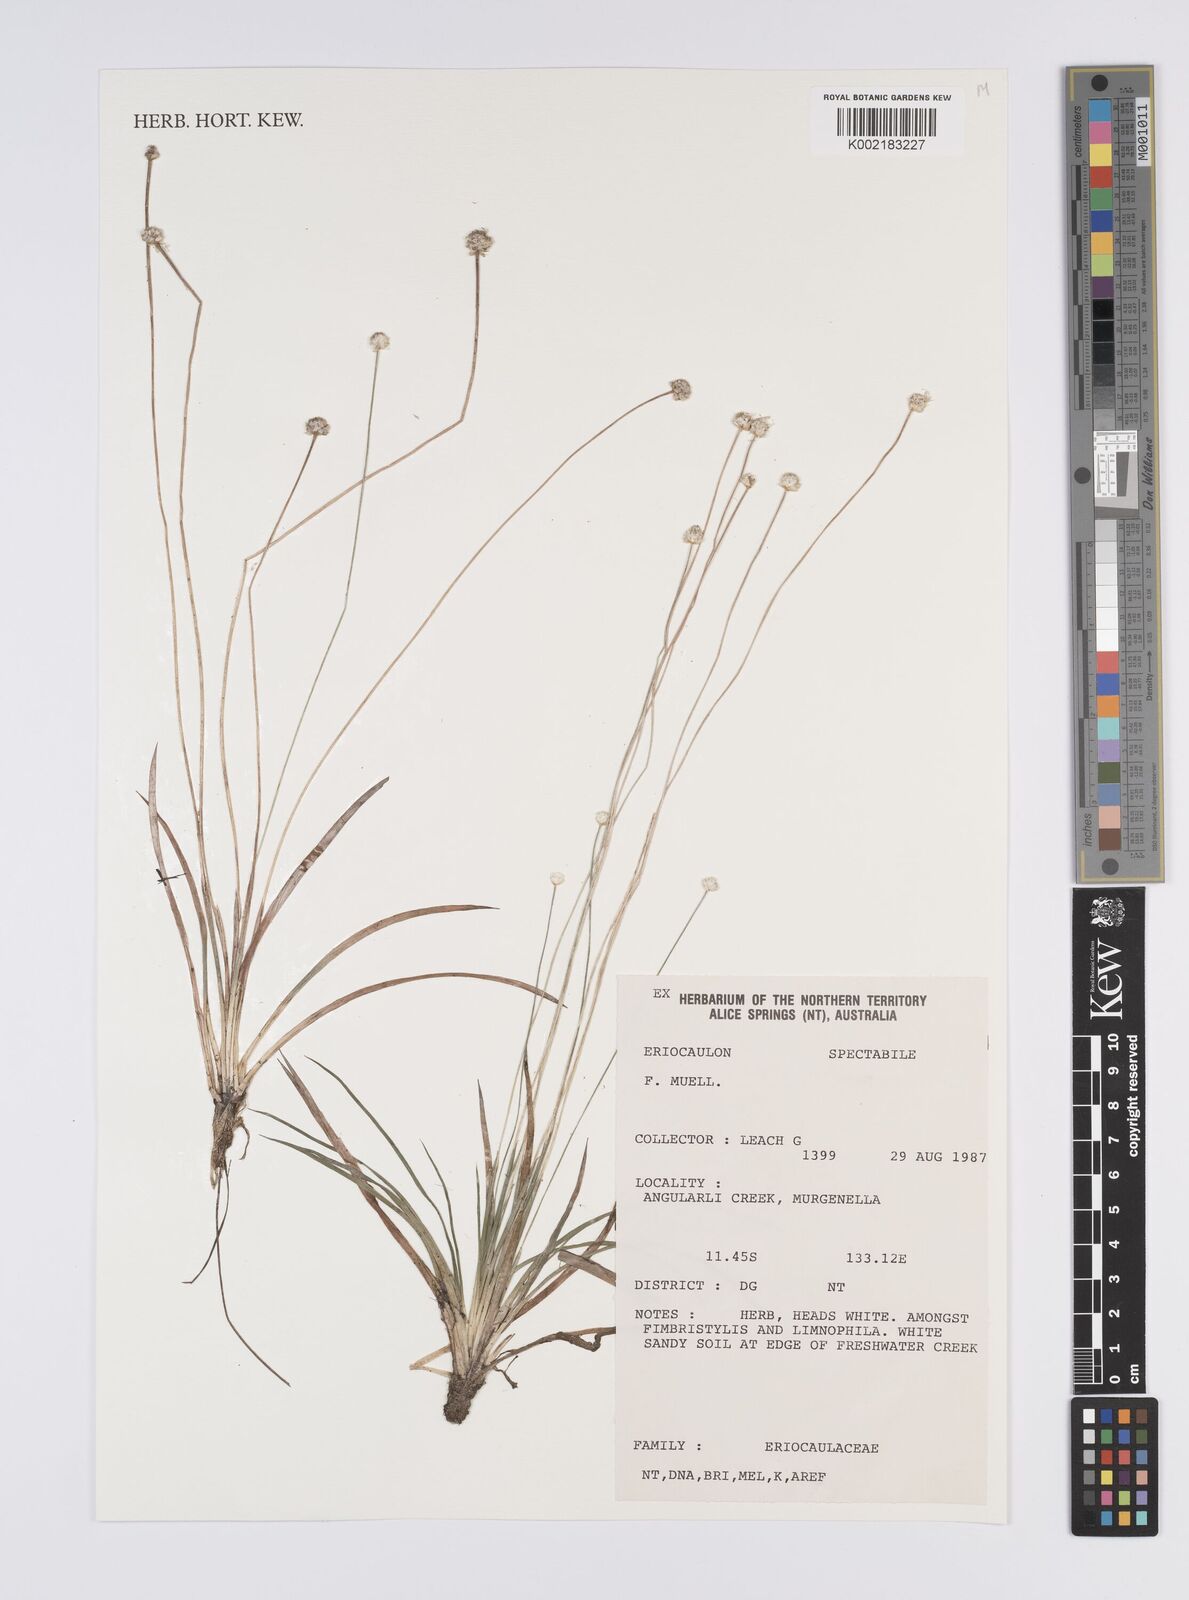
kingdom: Plantae
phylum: Tracheophyta
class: Liliopsida
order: Poales
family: Eriocaulaceae
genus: Eriocaulon
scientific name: Eriocaulon spectabile
